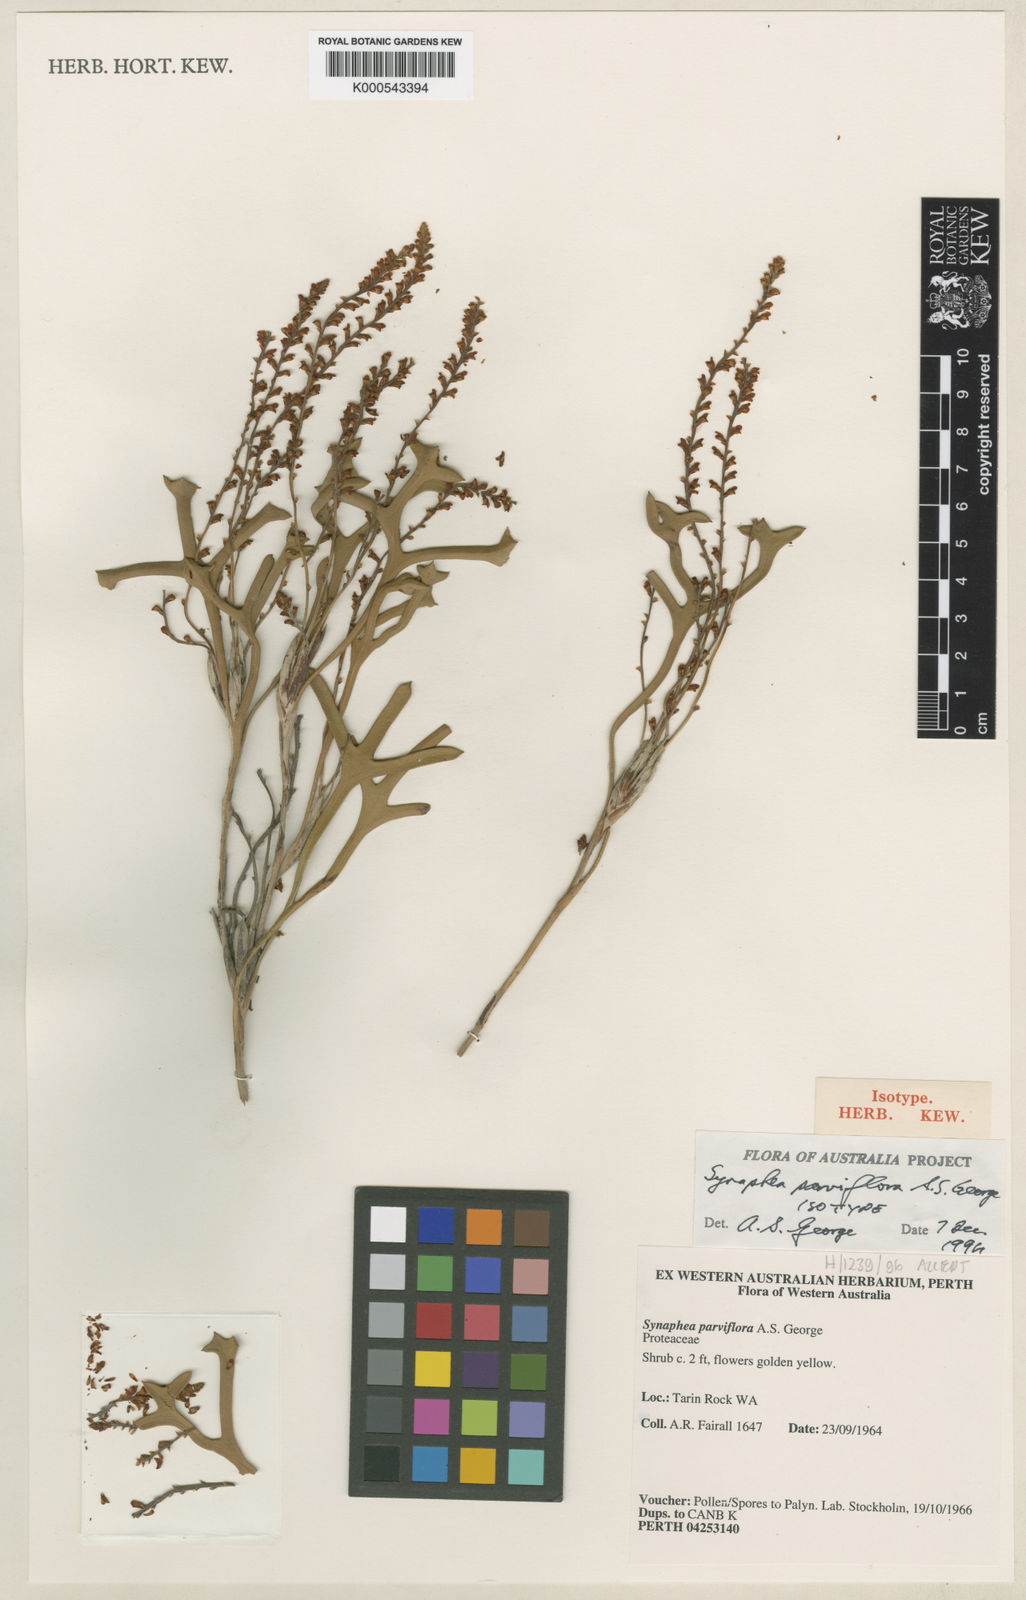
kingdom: Plantae
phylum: Tracheophyta
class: Magnoliopsida
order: Proteales
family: Proteaceae
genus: Synaphea
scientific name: Synaphea parviflora
